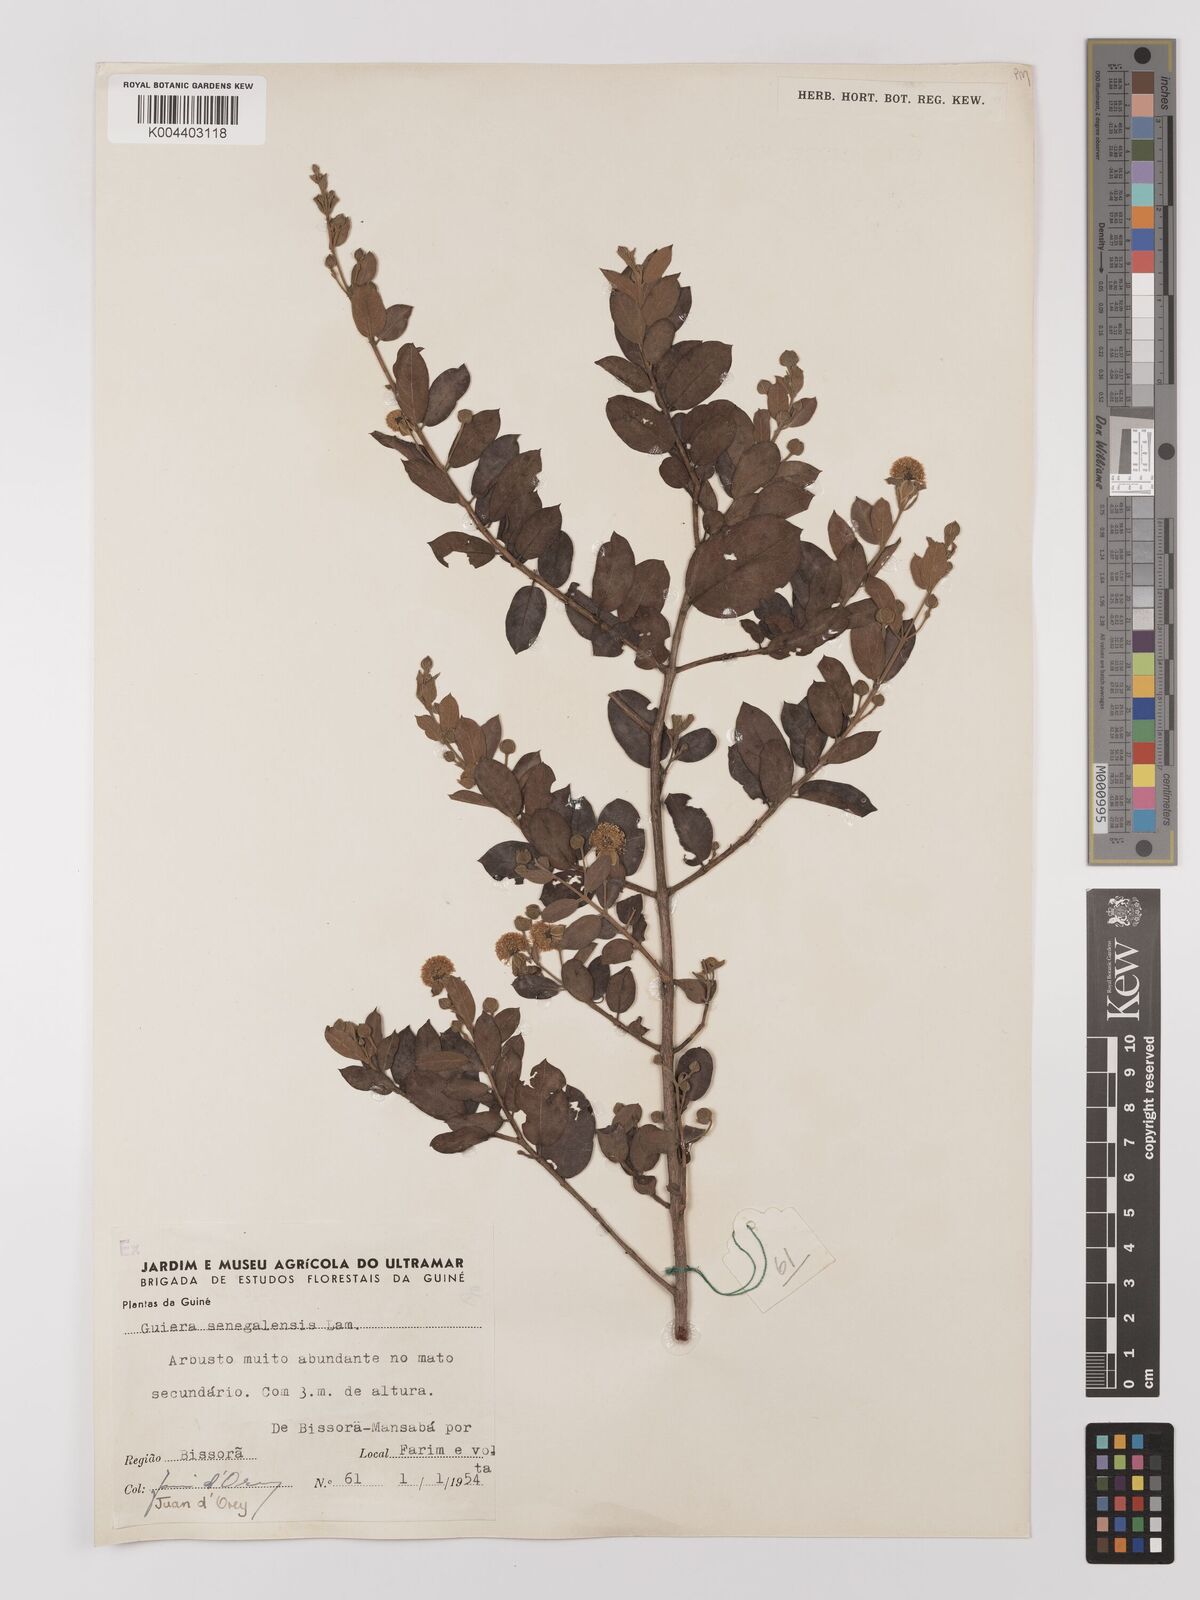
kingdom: Plantae
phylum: Tracheophyta
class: Magnoliopsida
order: Myrtales
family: Combretaceae
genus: Guiera
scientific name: Guiera
